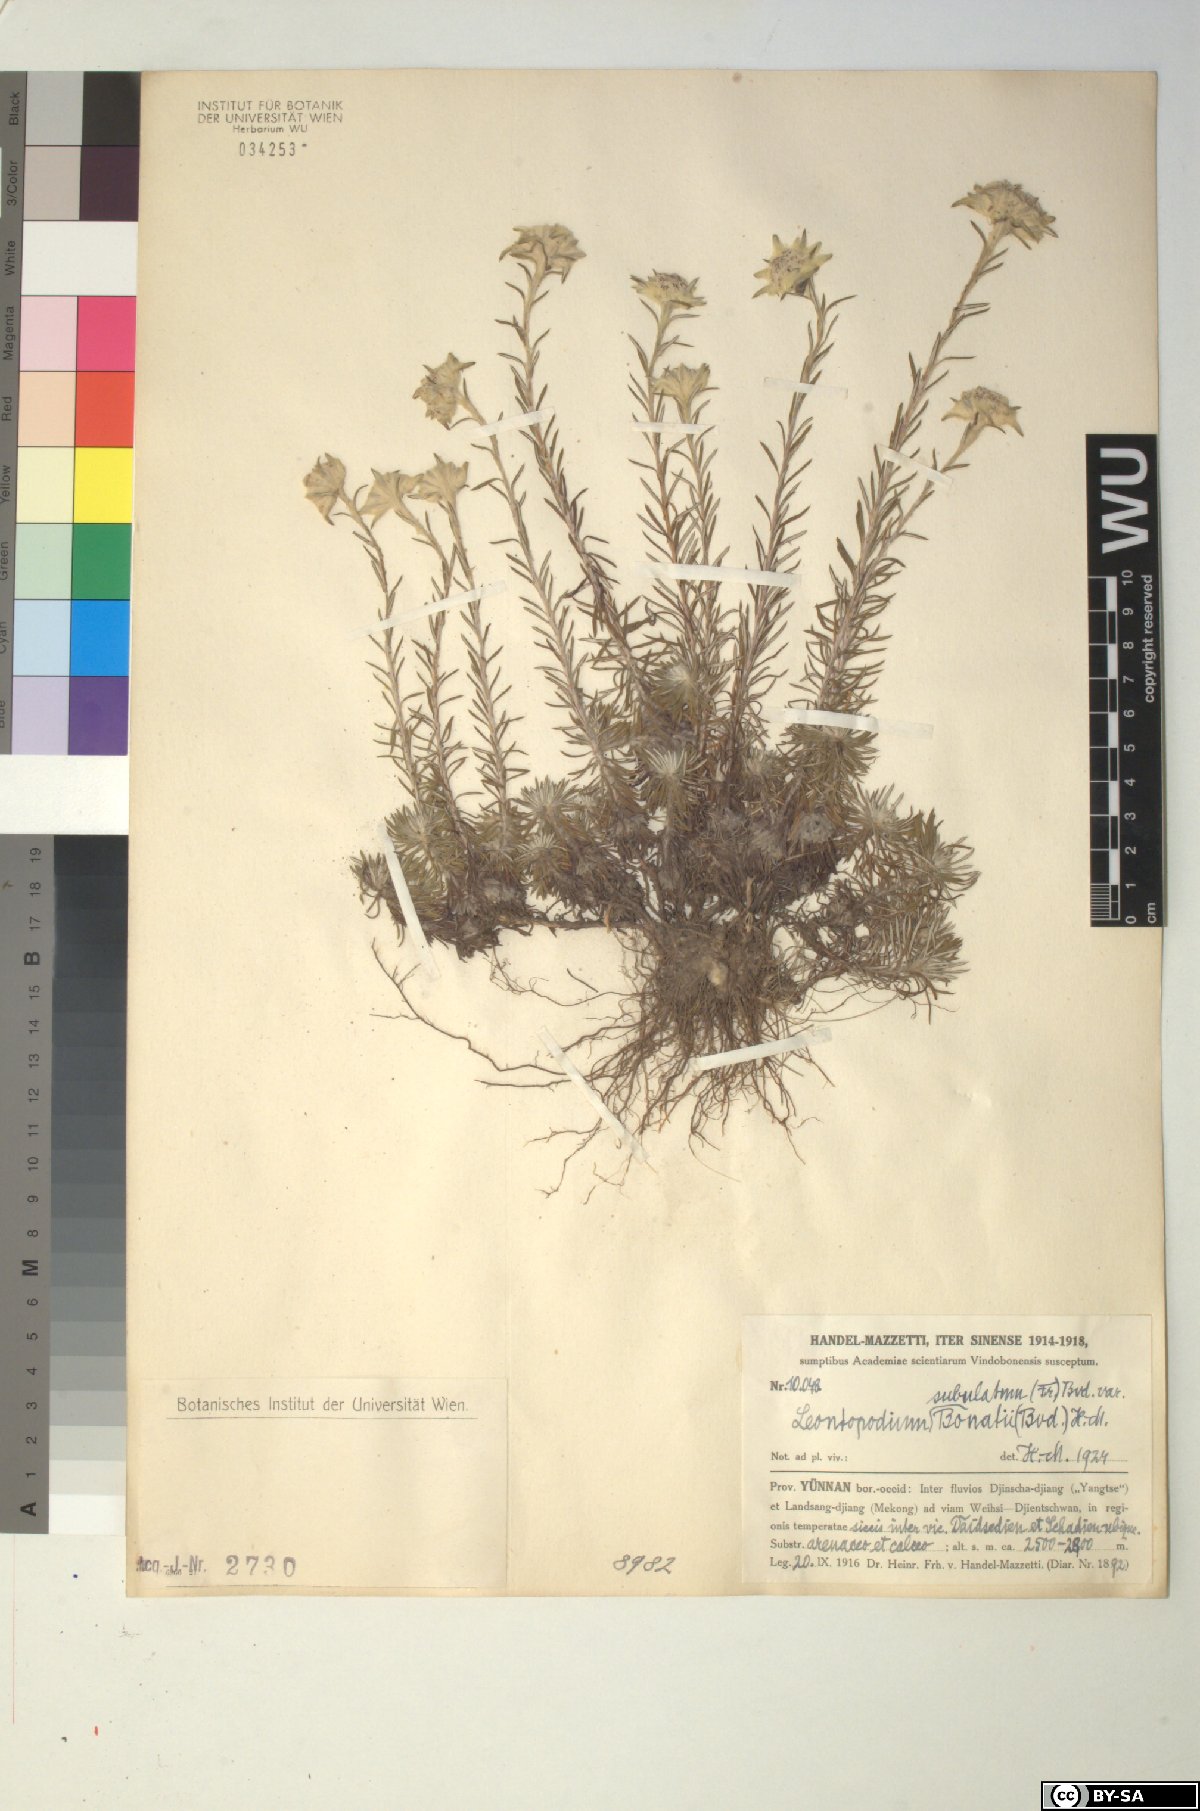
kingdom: Plantae
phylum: Tracheophyta
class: Magnoliopsida
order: Asterales
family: Asteraceae
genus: Leontopodium
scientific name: Leontopodium andersonii
